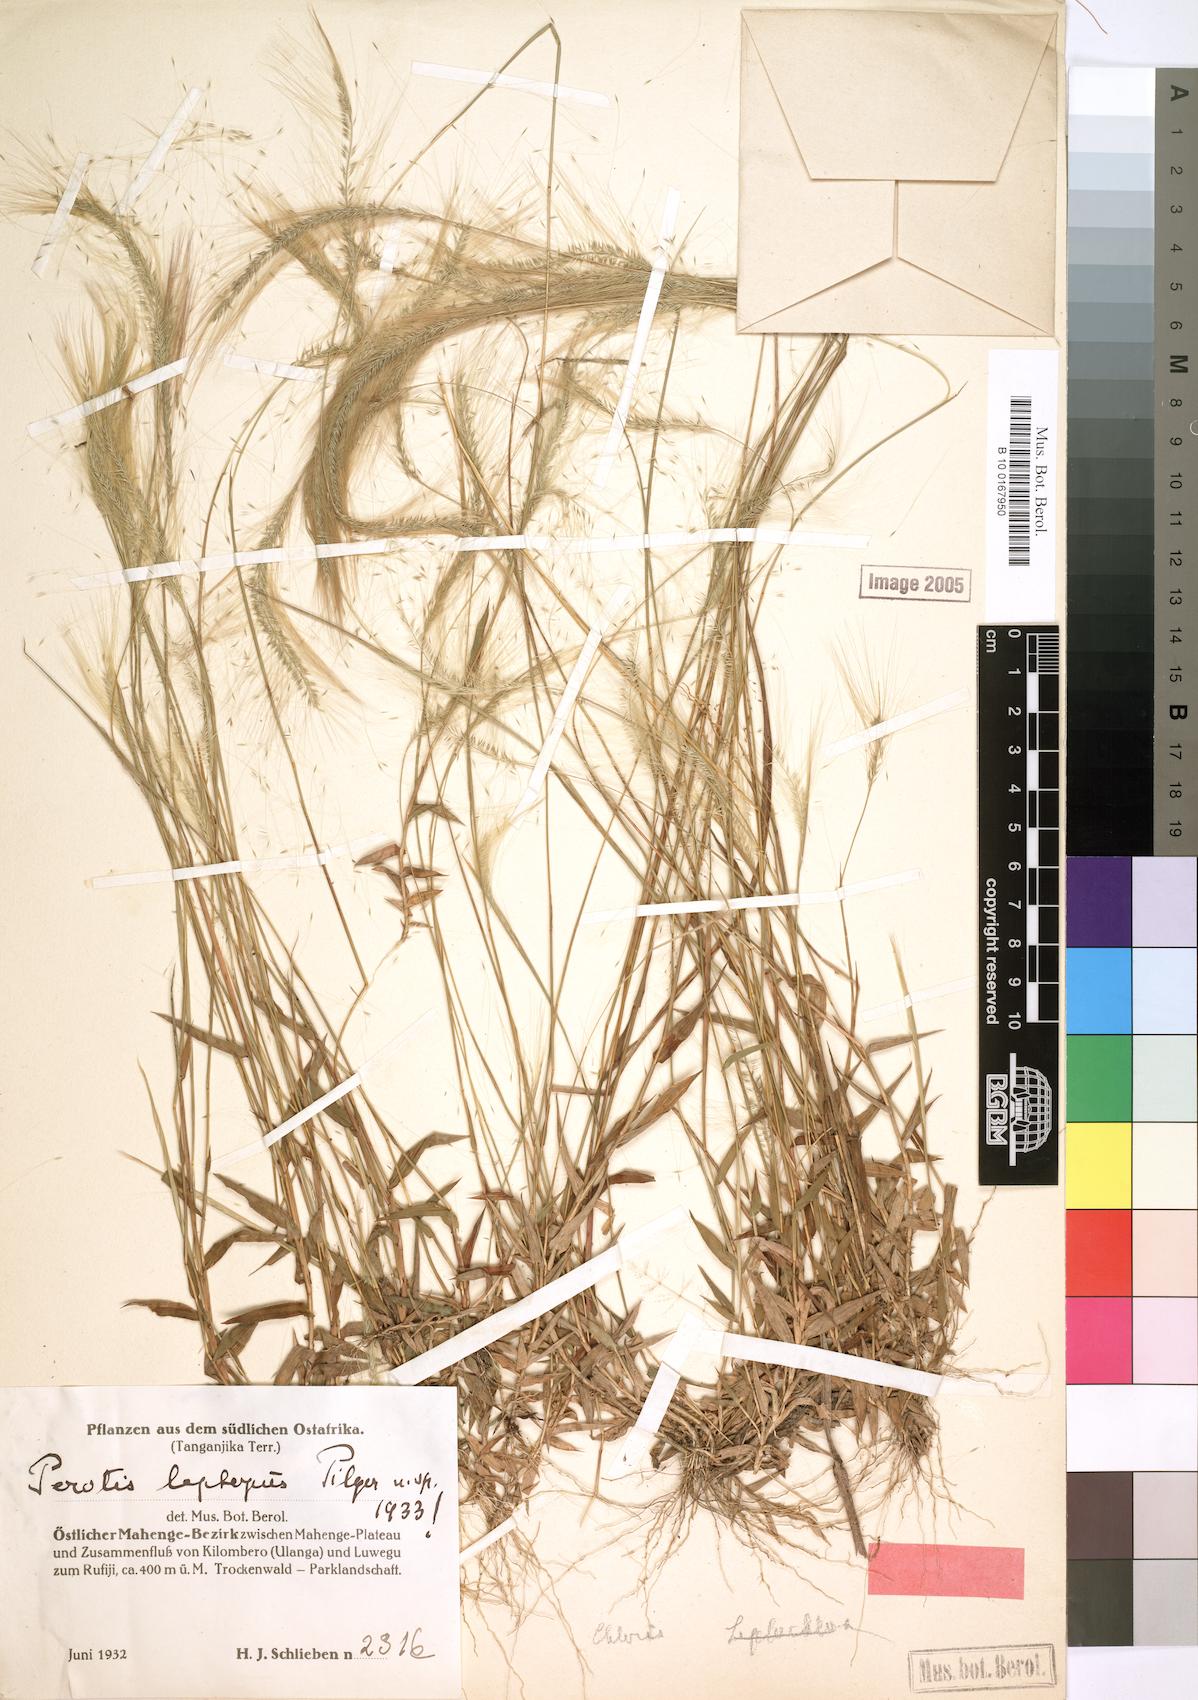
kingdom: Plantae
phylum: Tracheophyta
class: Liliopsida
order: Poales
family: Poaceae
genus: Perotis
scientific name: Perotis leptopus
